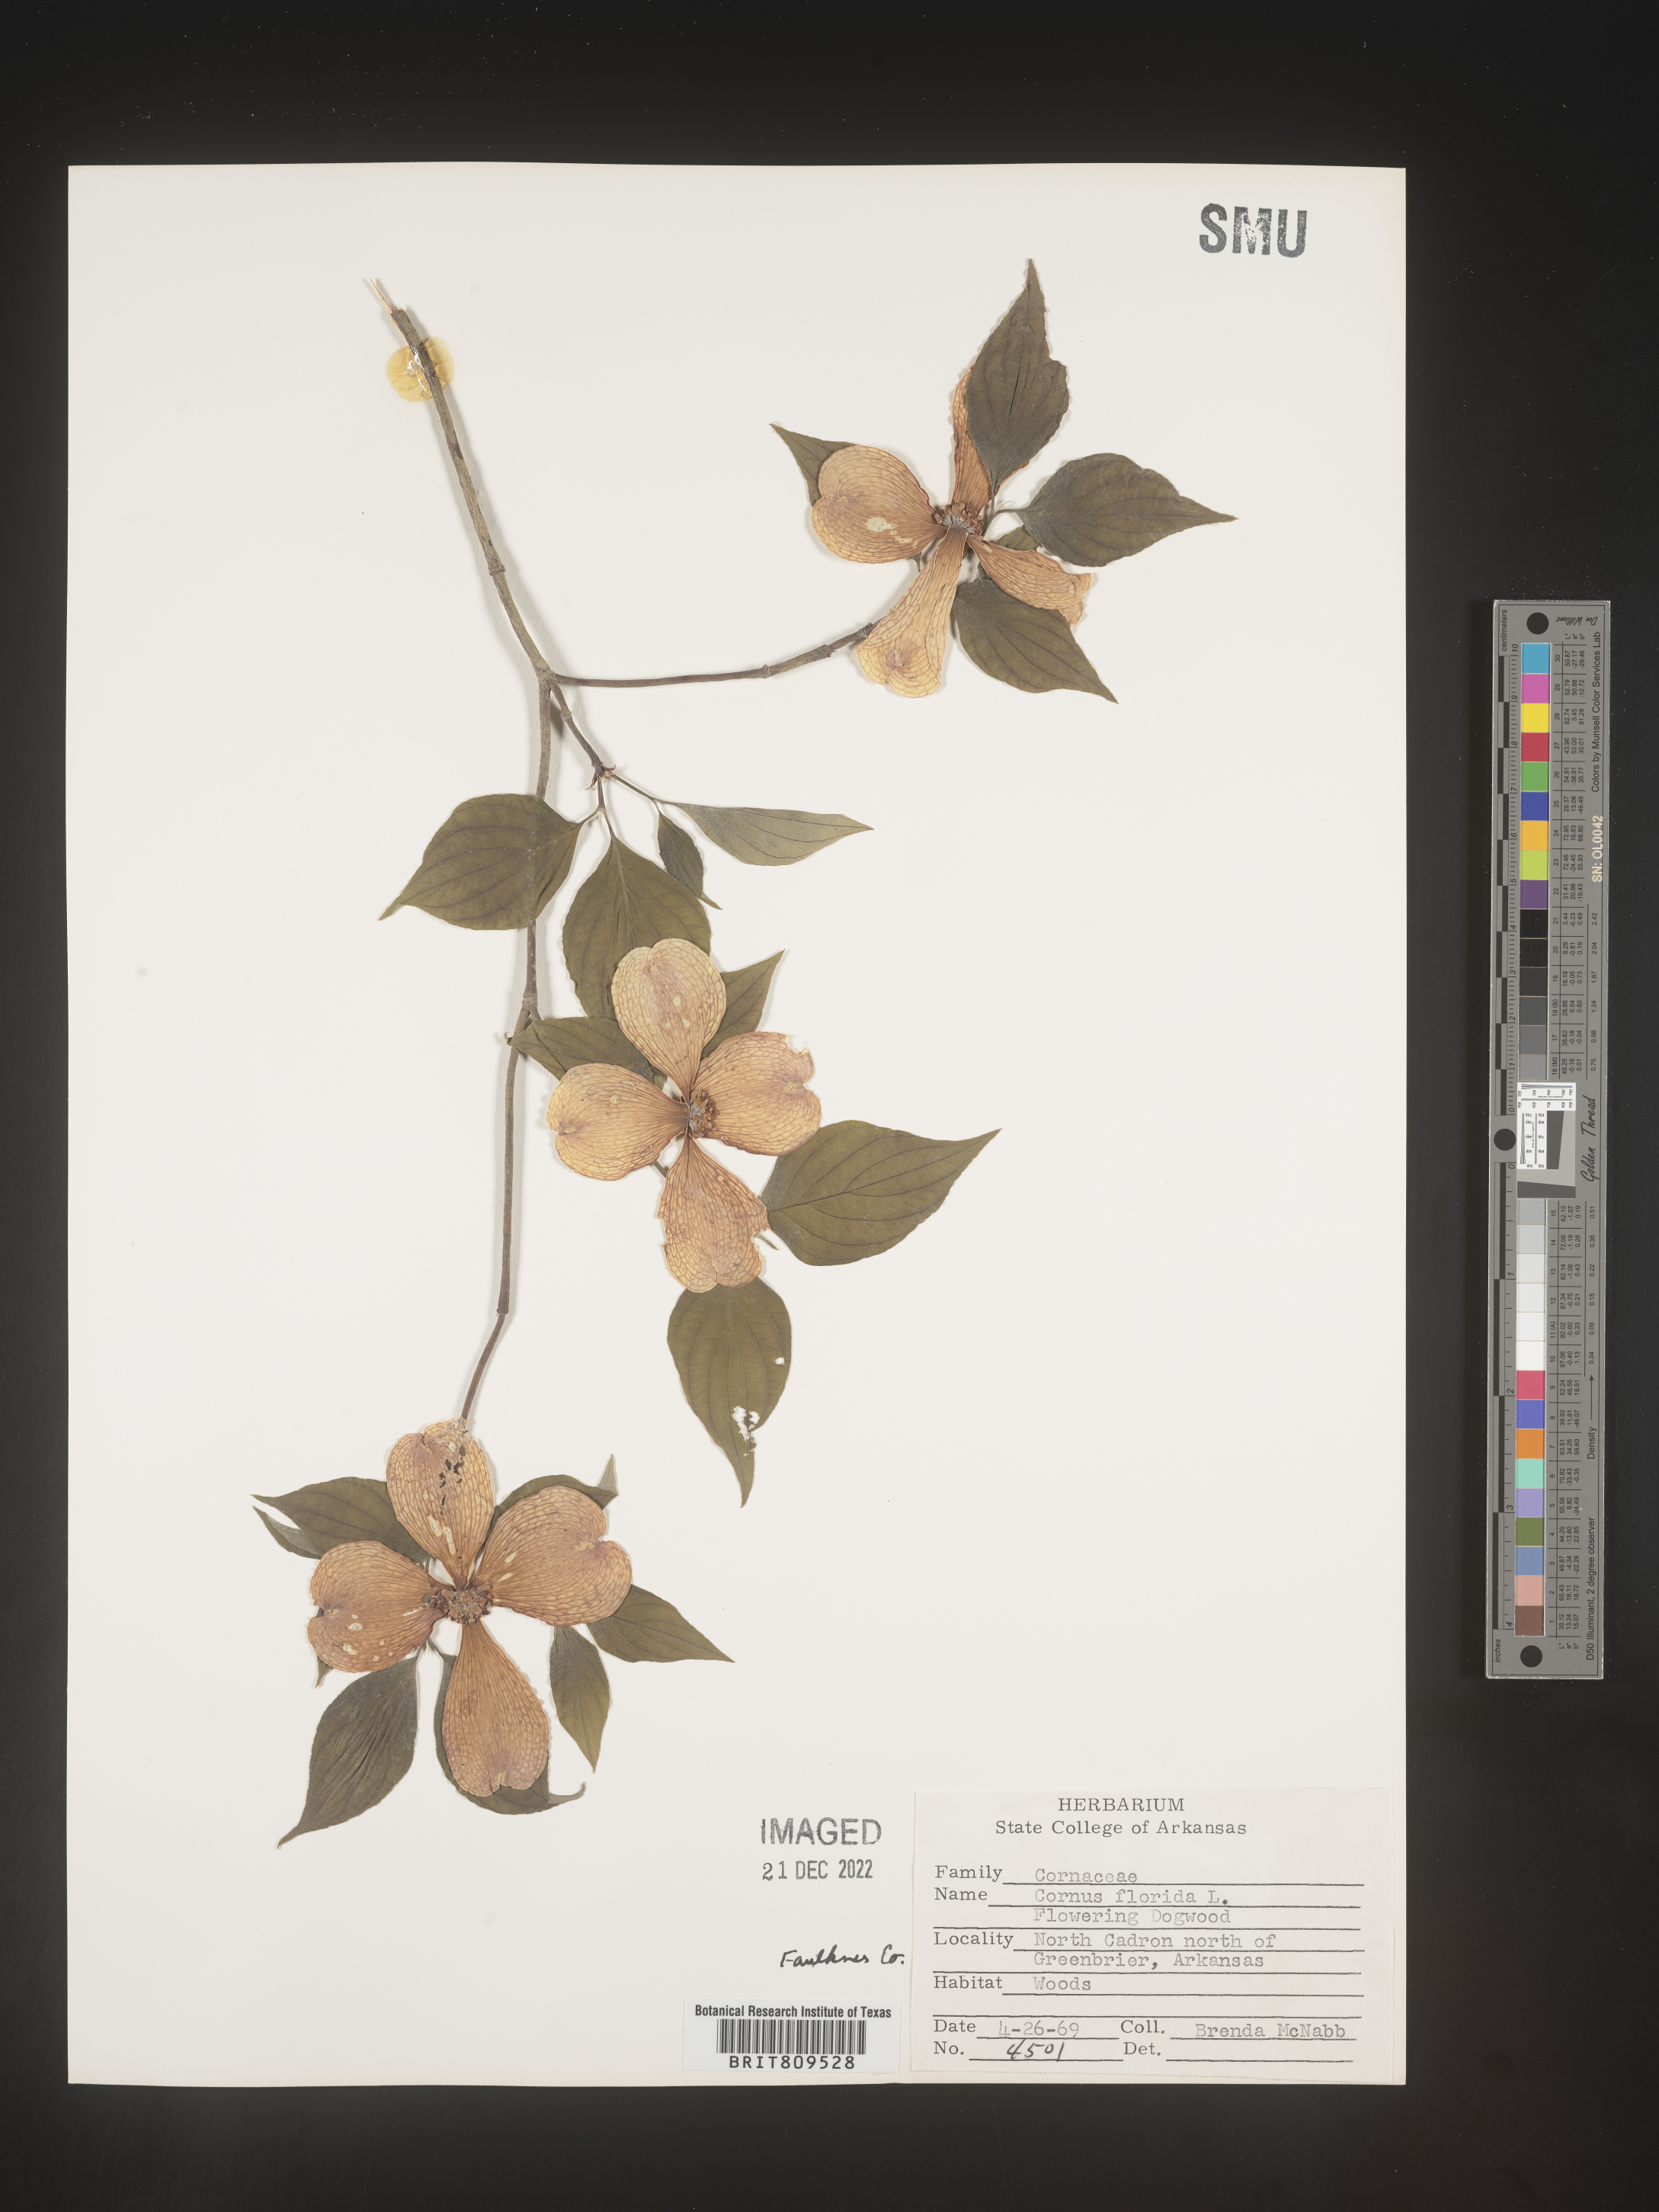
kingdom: Plantae
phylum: Tracheophyta
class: Magnoliopsida
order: Cornales
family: Cornaceae
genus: Cornus
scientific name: Cornus florida
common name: Flowering dogwood
